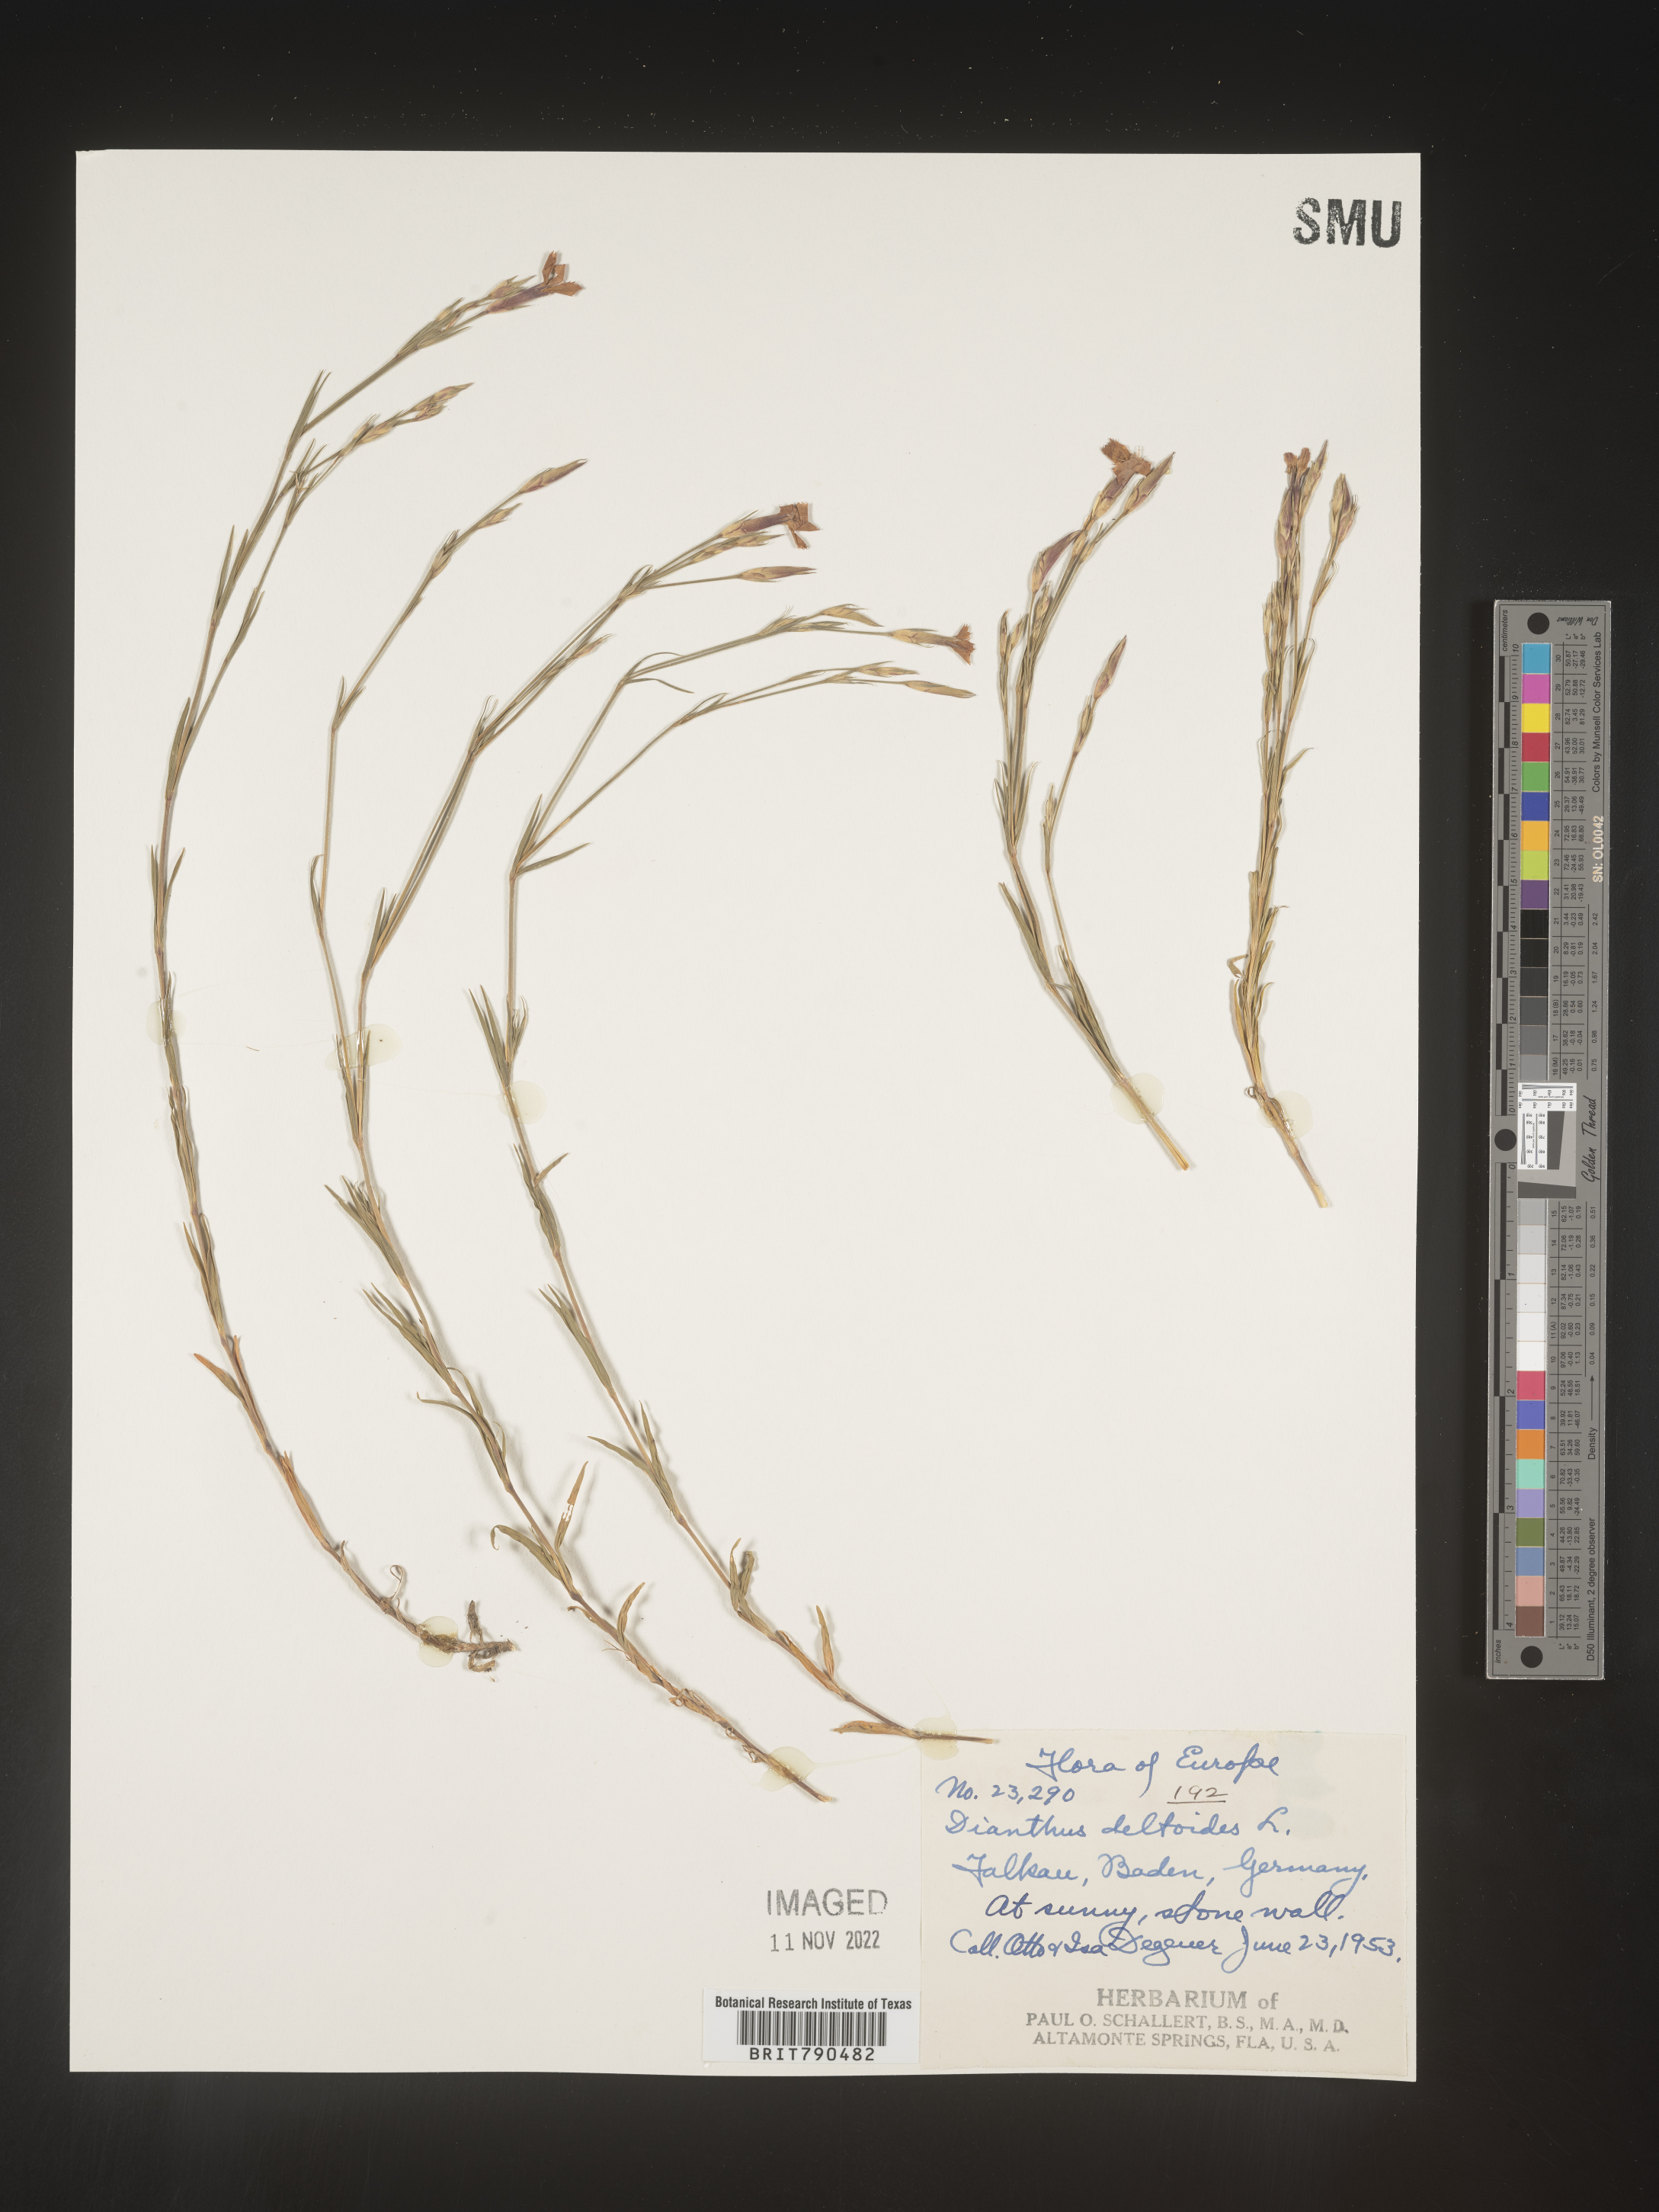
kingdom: Plantae
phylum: Tracheophyta
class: Magnoliopsida
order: Caryophyllales
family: Caryophyllaceae
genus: Dianthus
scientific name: Dianthus deltoides
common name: Maiden pink
